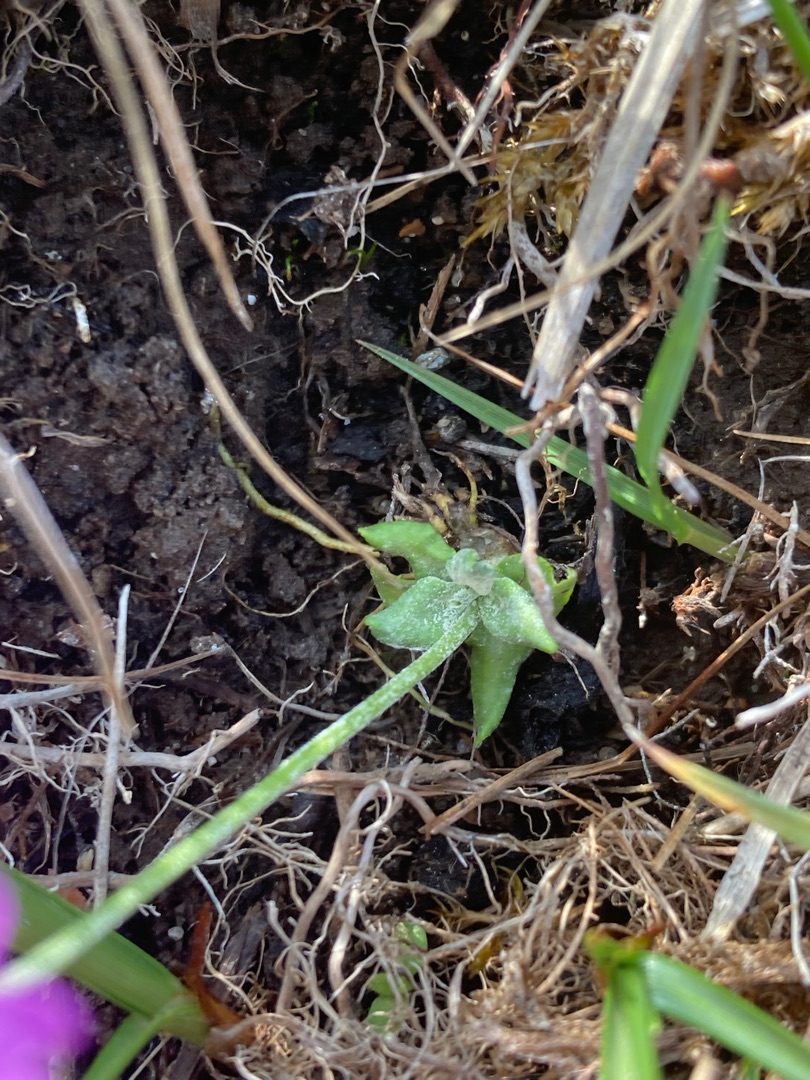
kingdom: Plantae
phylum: Tracheophyta
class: Magnoliopsida
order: Ericales
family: Primulaceae
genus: Primula
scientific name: Primula farinosa
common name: Melet kodriver
